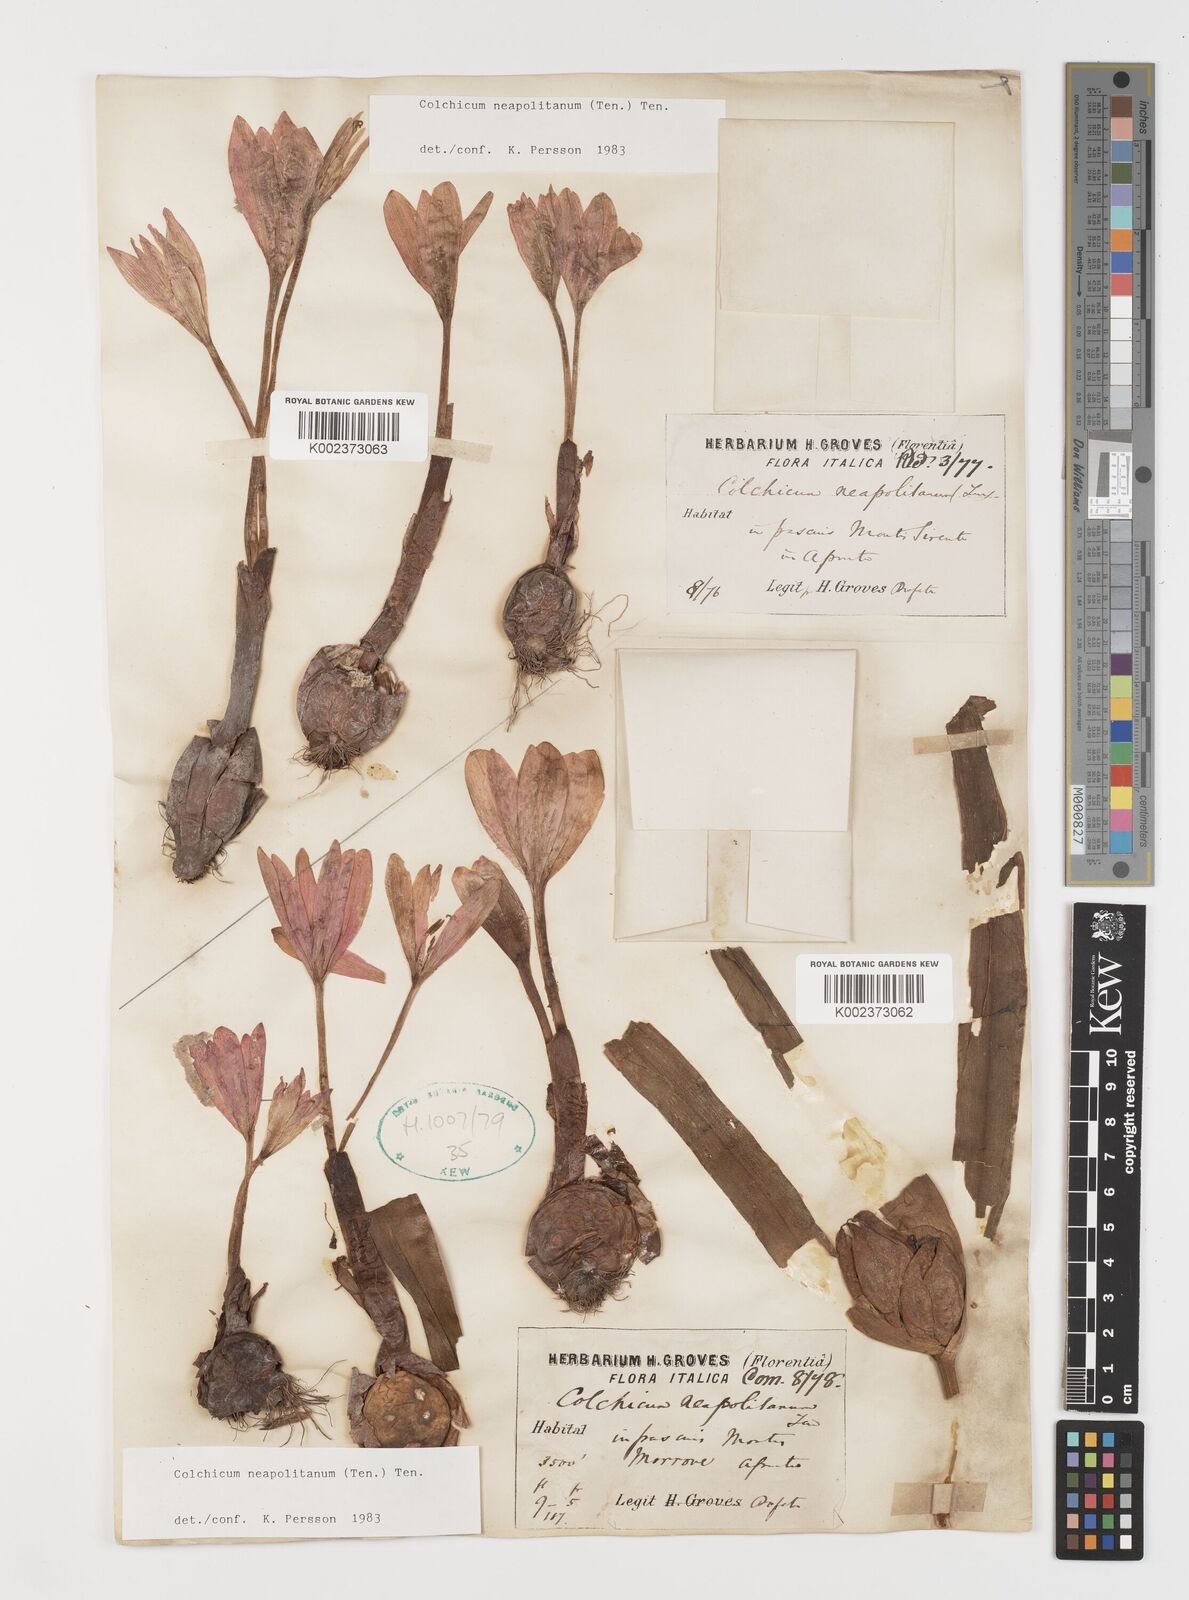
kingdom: Plantae
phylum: Tracheophyta
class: Liliopsida
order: Liliales
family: Colchicaceae
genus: Colchicum
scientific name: Colchicum neapolitanum
